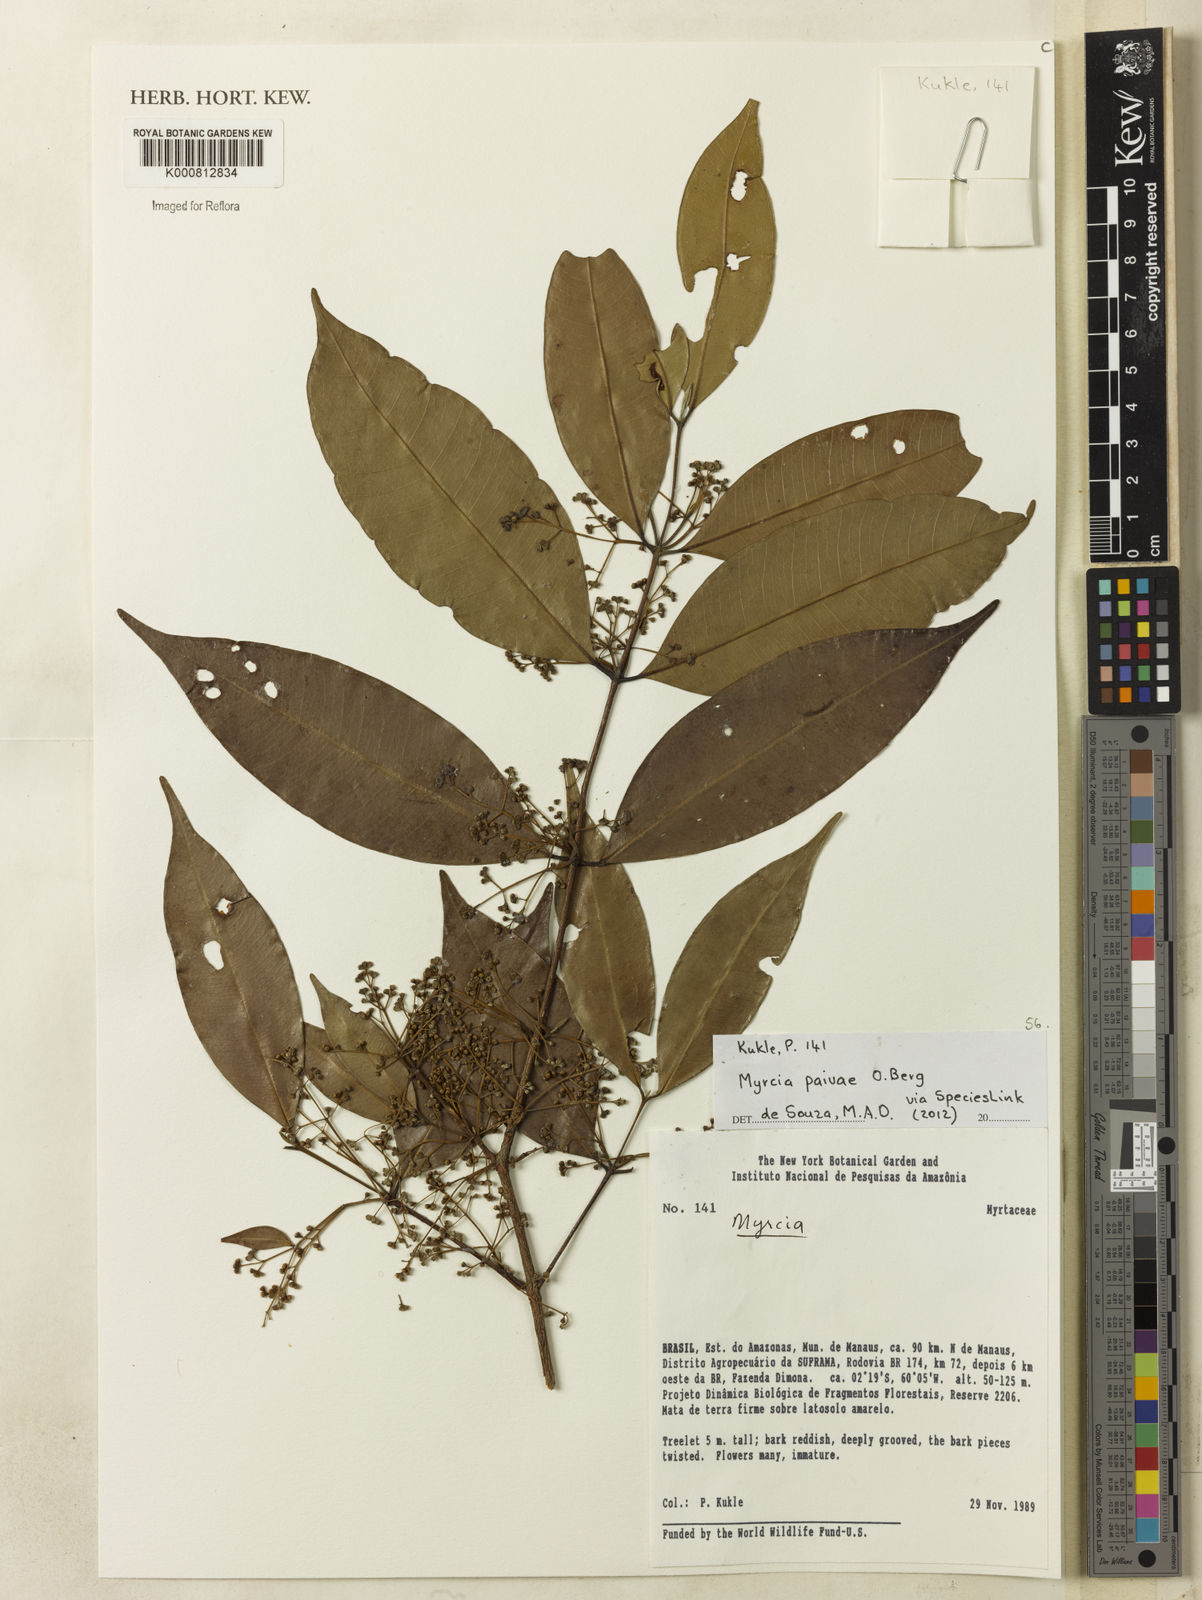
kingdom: Plantae
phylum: Tracheophyta
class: Magnoliopsida
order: Myrtales
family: Myrtaceae
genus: Myrcia
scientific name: Myrcia paivae
